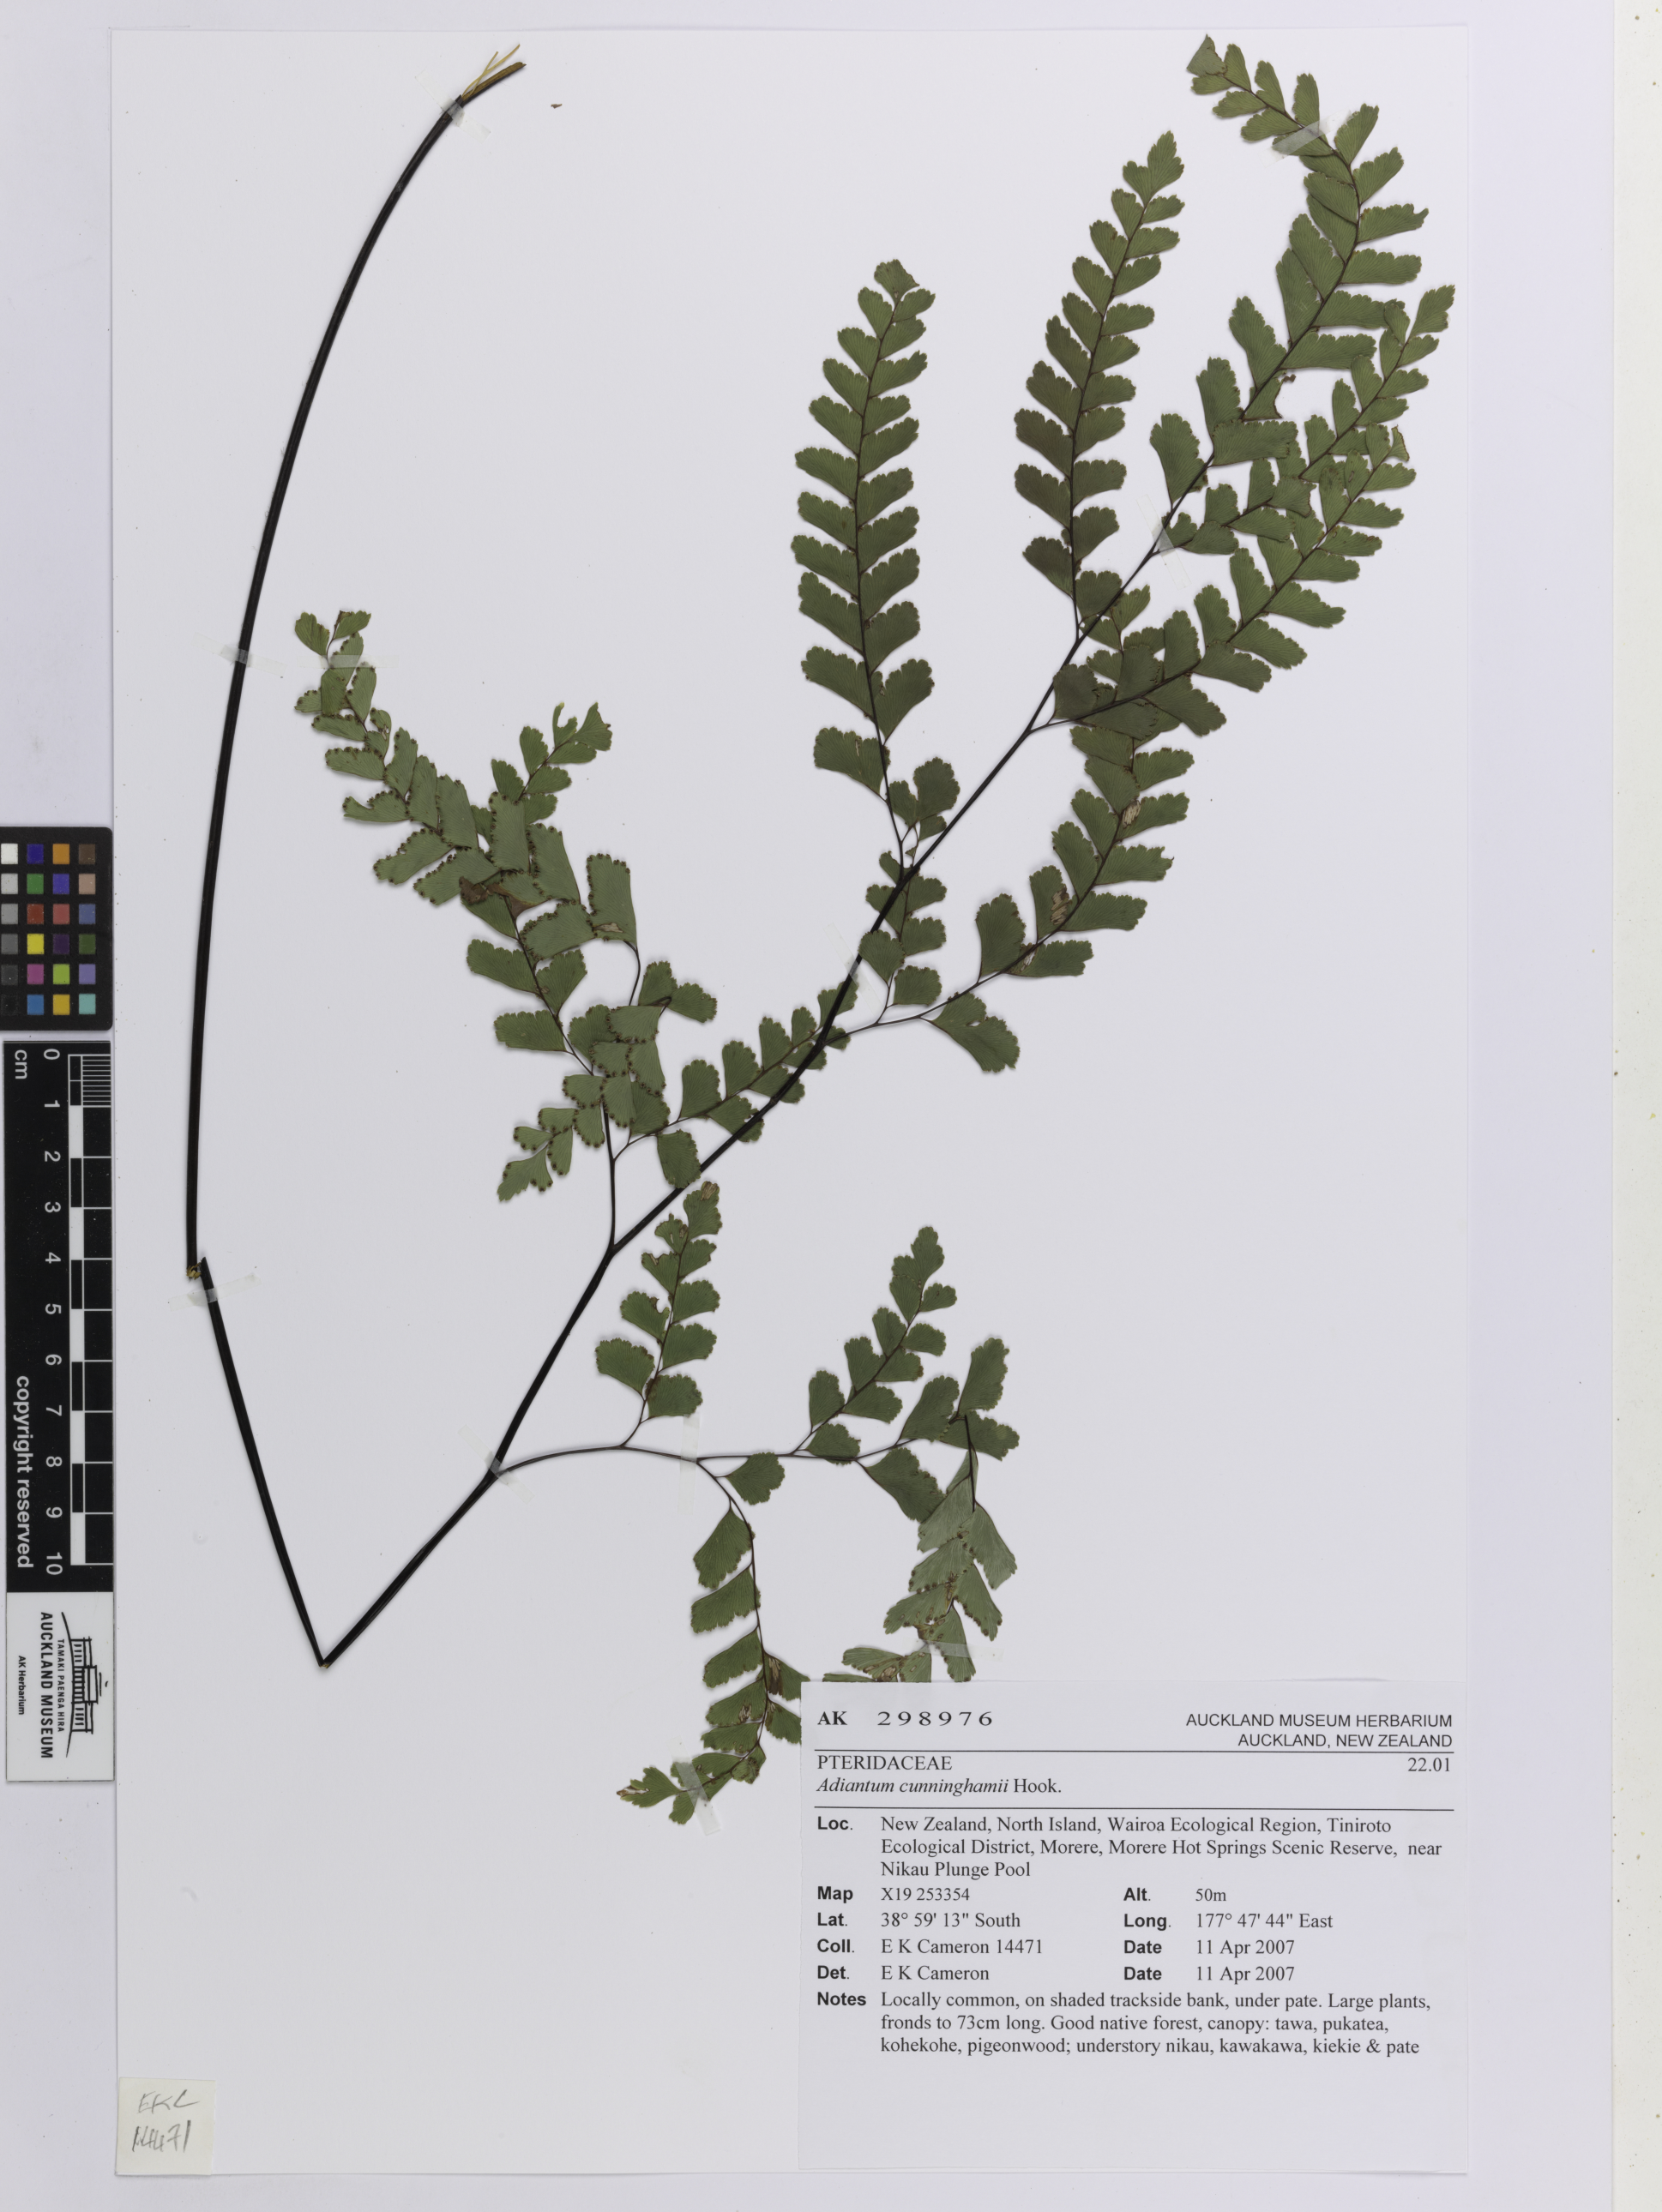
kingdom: Plantae
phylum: Tracheophyta
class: Polypodiopsida
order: Polypodiales
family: Pteridaceae
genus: Adiantum
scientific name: Adiantum cunninghamii
